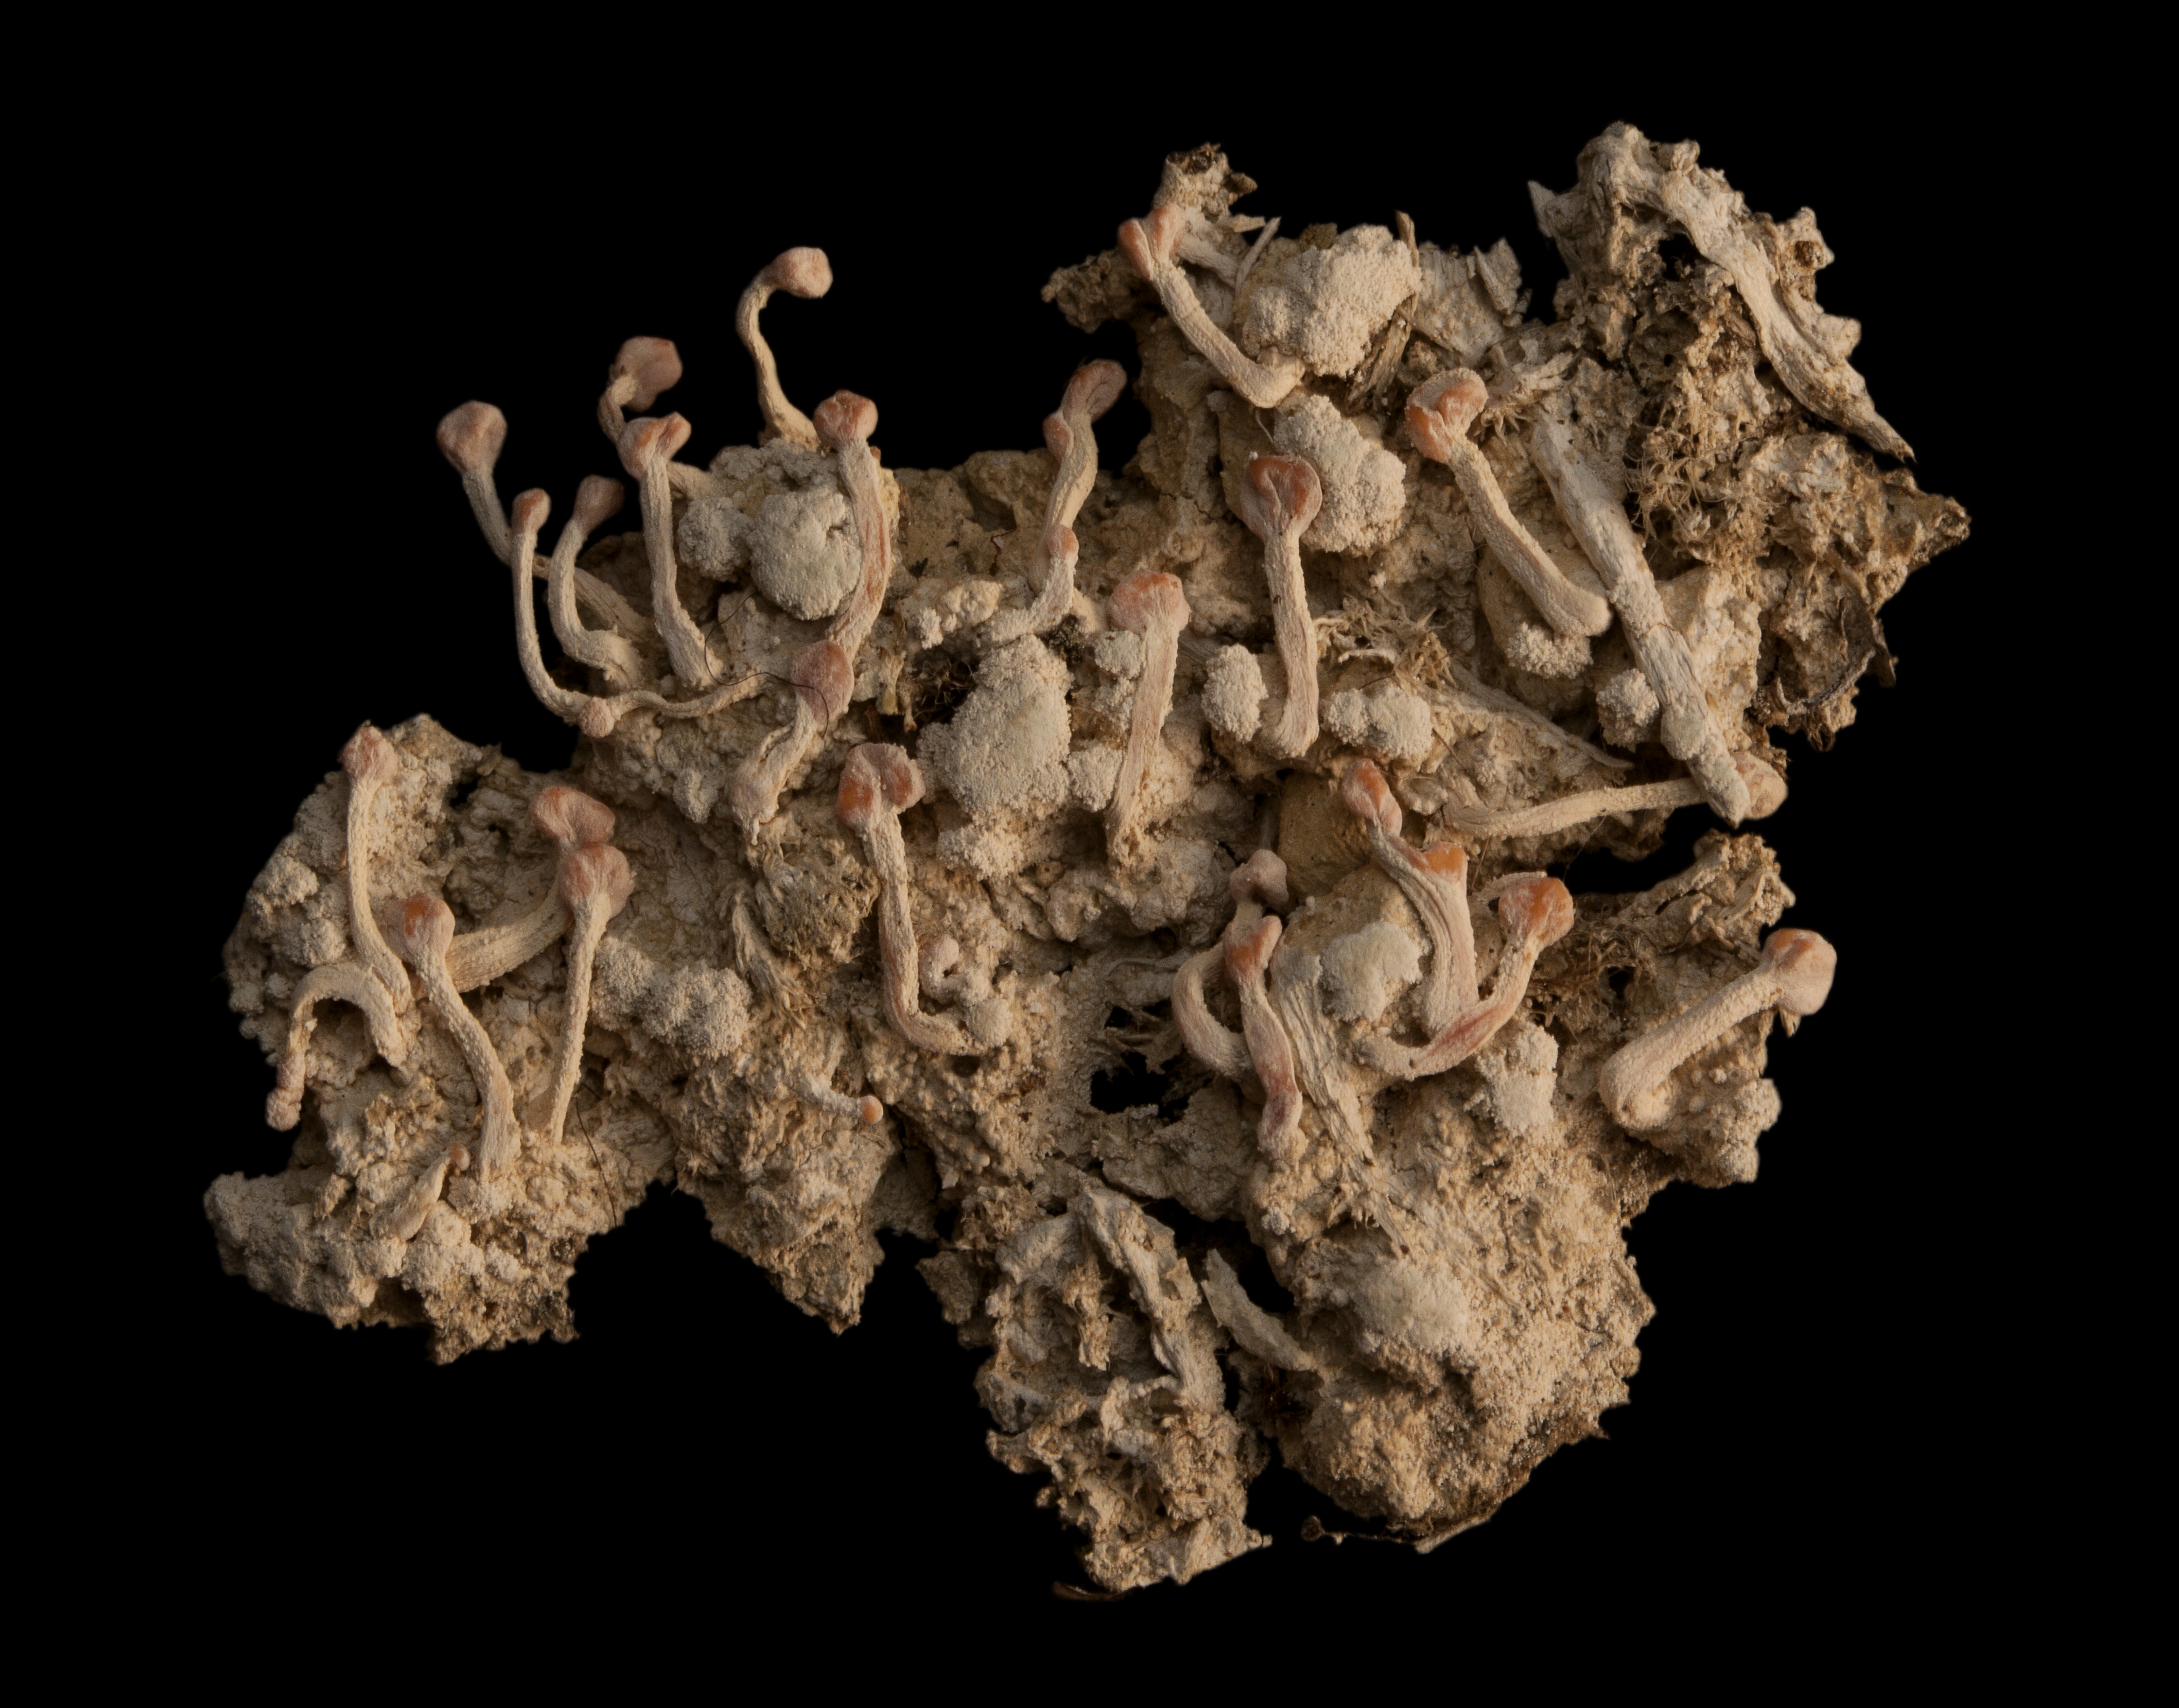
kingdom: Fungi
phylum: Ascomycota
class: Lecanoromycetes
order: Pertusariales
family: Icmadophilaceae
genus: Dibaeis
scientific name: Dibaeis arcuata
